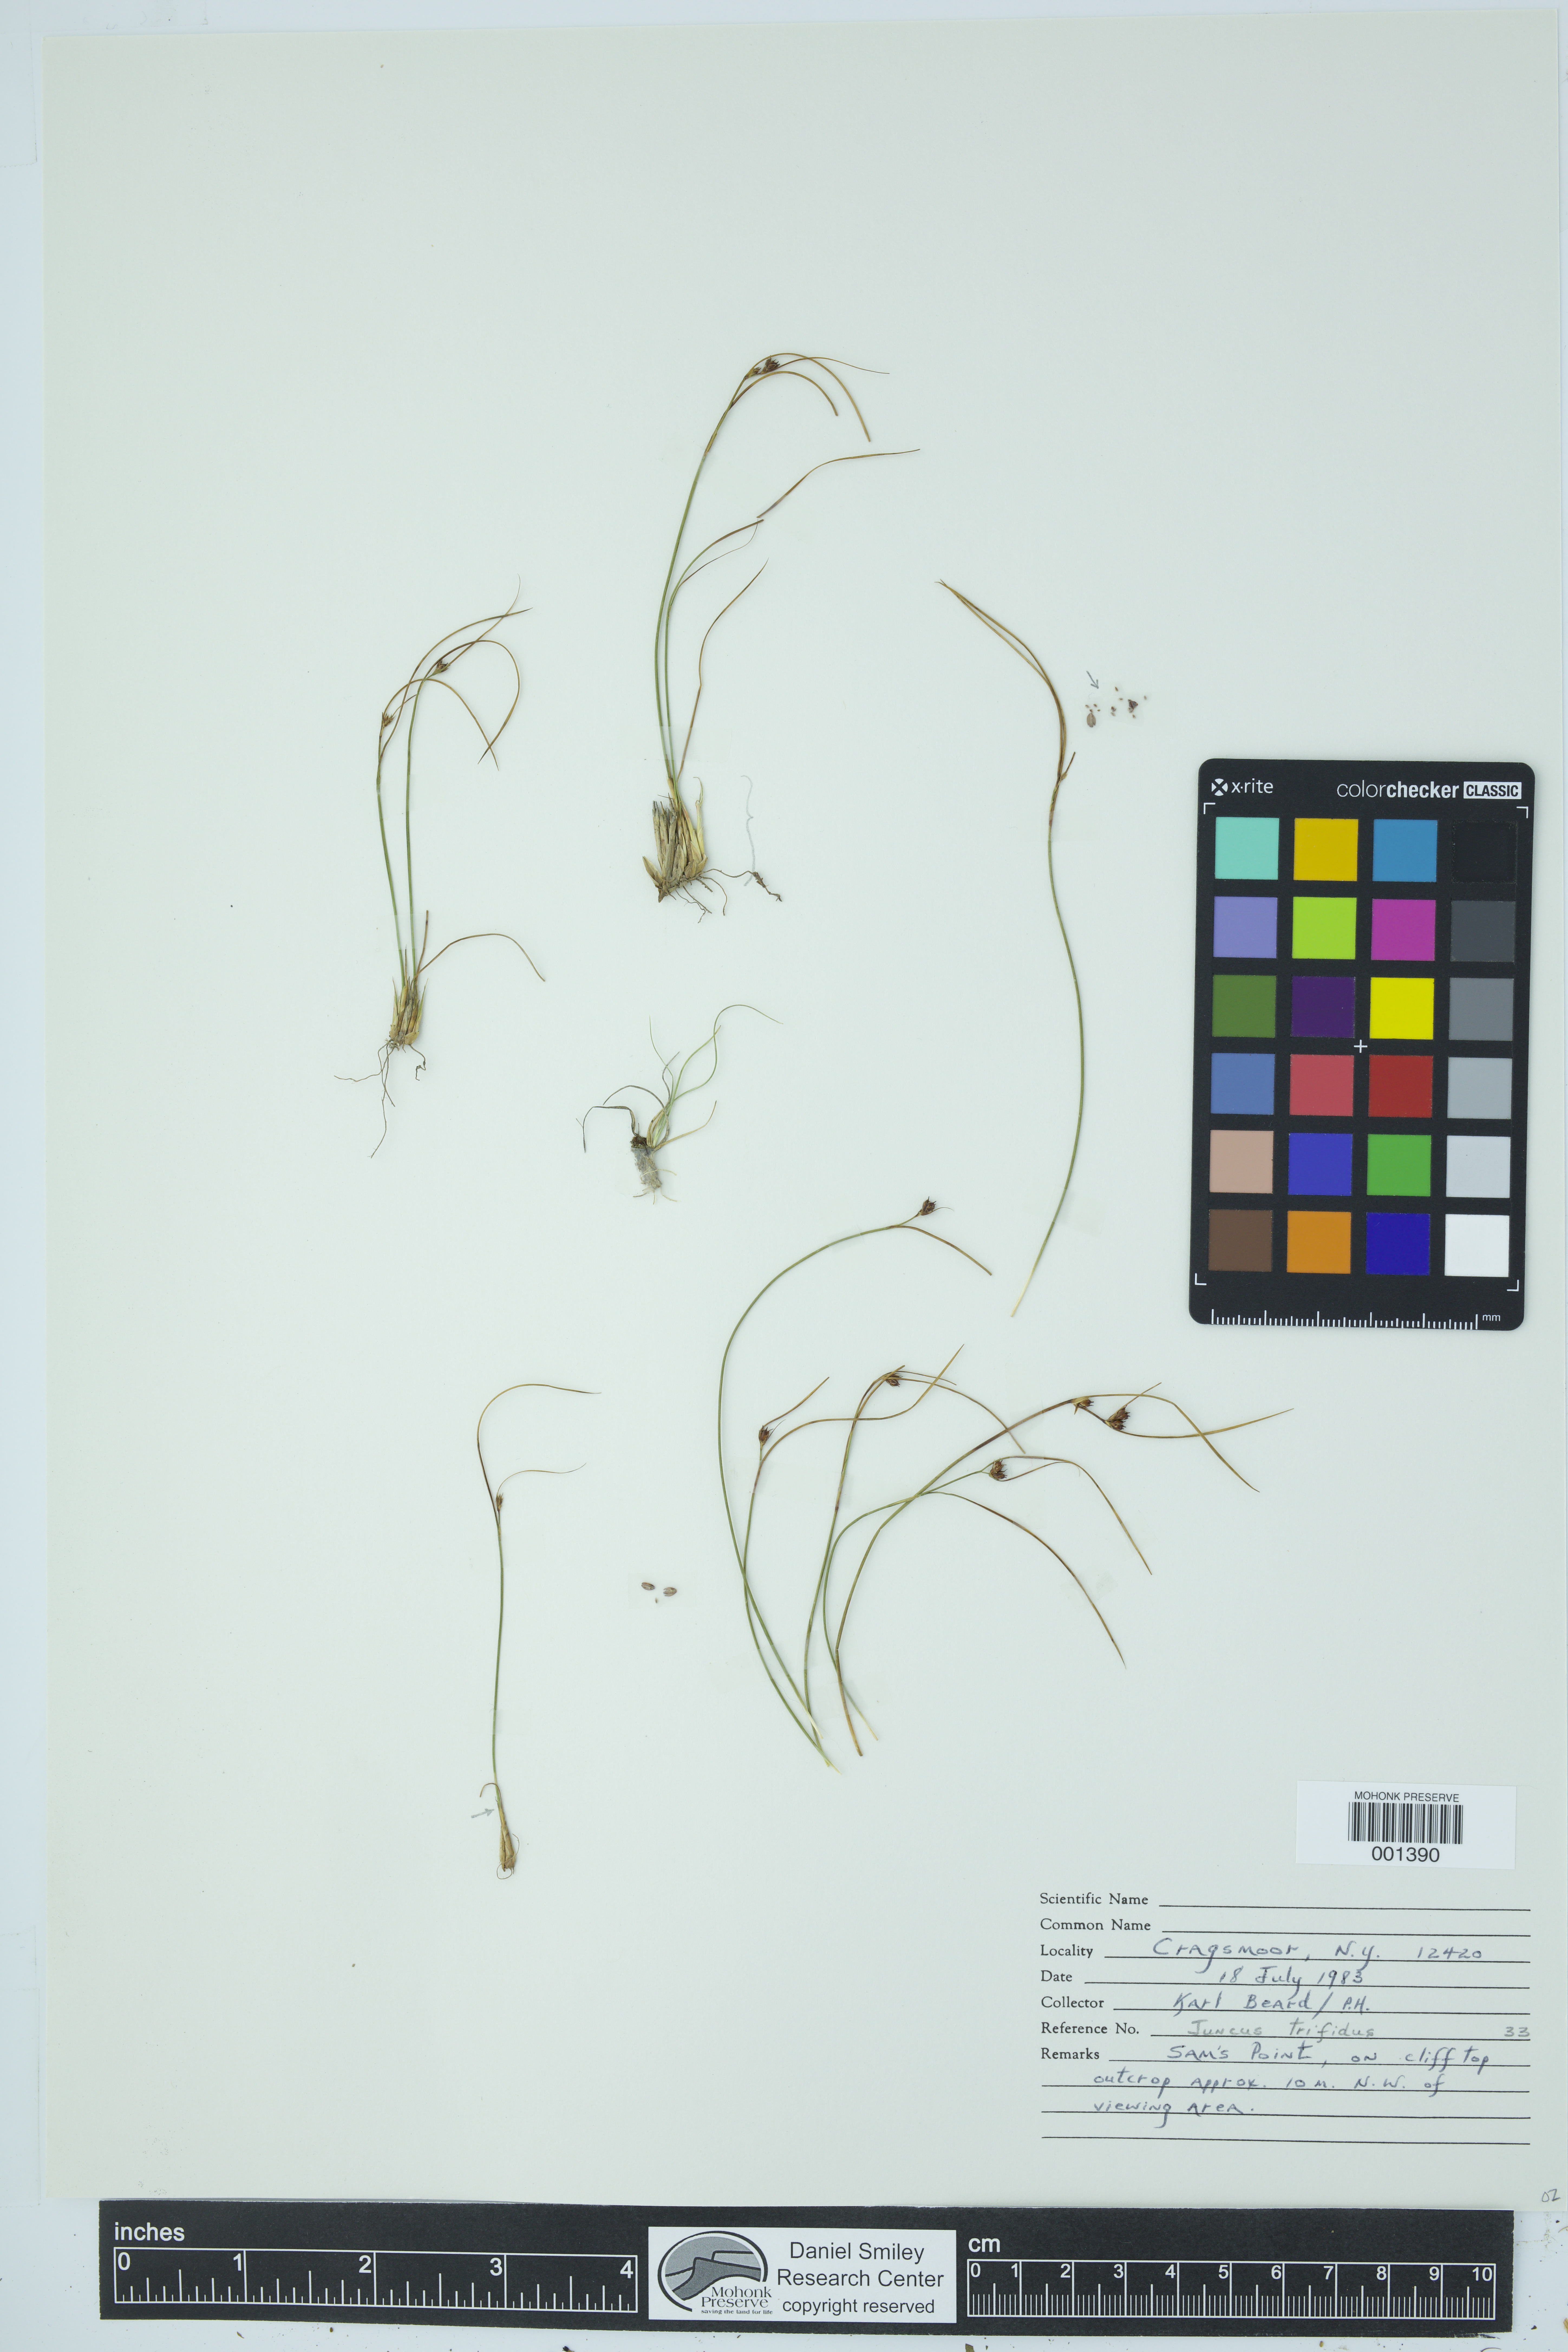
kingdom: Plantae
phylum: Tracheophyta
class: Liliopsida
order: Poales
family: Juncaceae
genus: Oreojuncus
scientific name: Oreojuncus trifidus
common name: Highland rush
